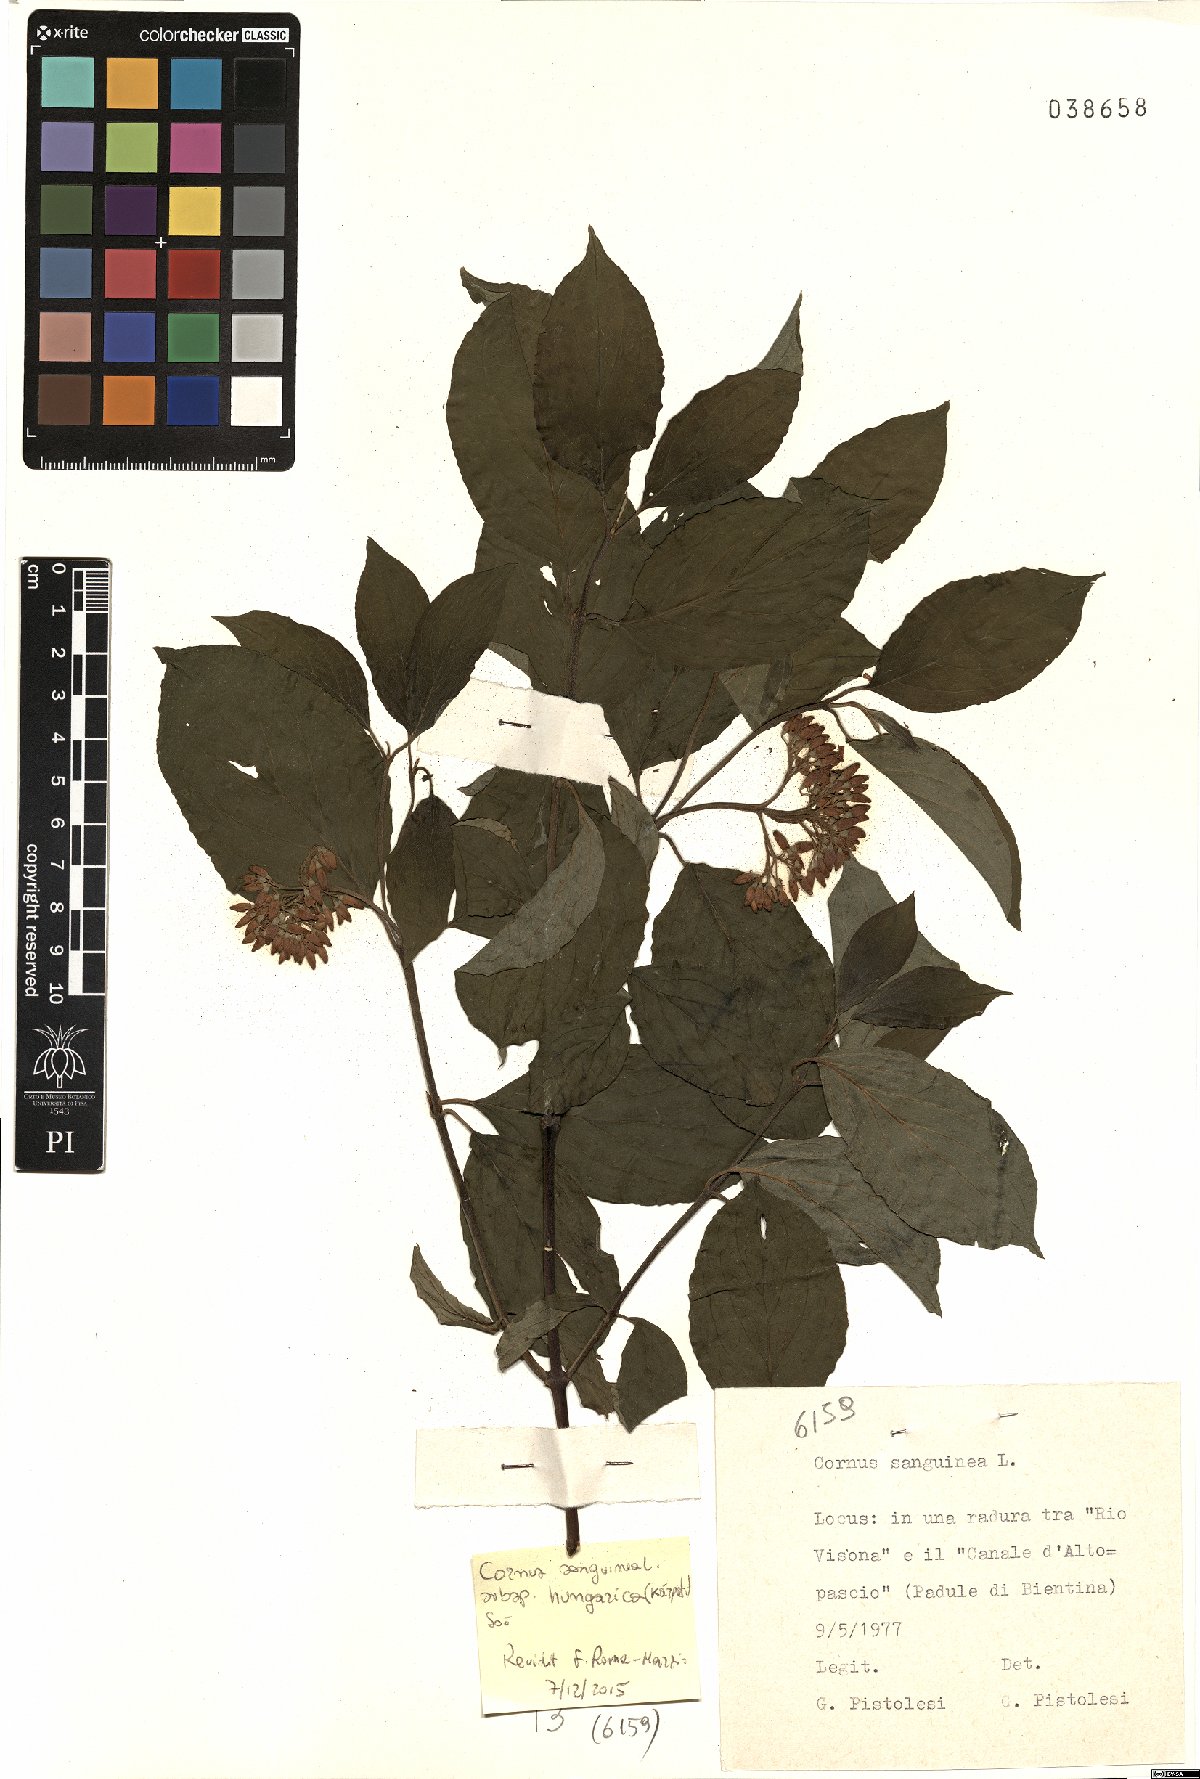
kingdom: Plantae
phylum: Tracheophyta
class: Magnoliopsida
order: Cornales
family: Cornaceae
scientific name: Cornaceae
